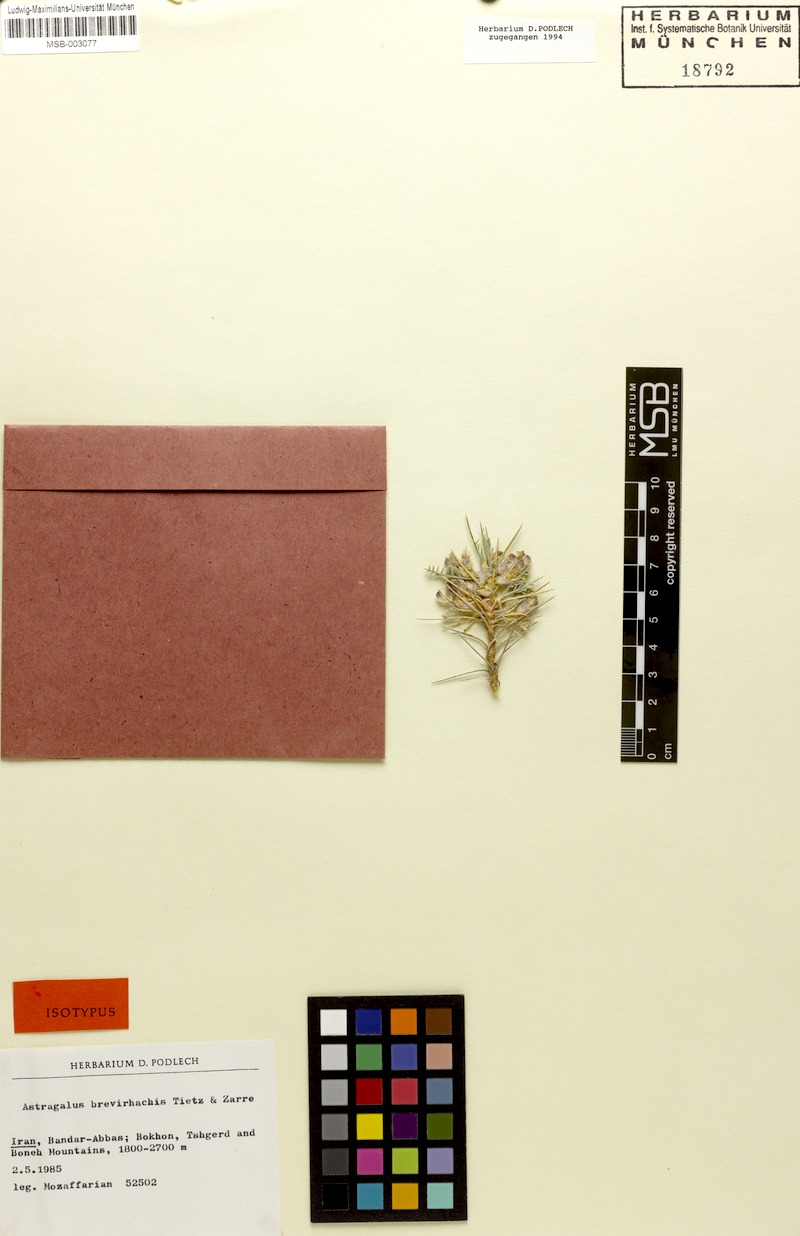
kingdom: Plantae
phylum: Tracheophyta
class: Magnoliopsida
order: Fabales
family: Fabaceae
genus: Astragalus
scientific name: Astragalus susianus
